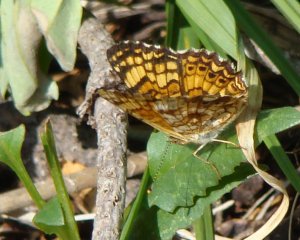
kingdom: Animalia
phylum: Arthropoda
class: Insecta
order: Lepidoptera
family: Nymphalidae
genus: Eresia
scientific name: Eresia aveyrona
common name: Mylitta Crescent
